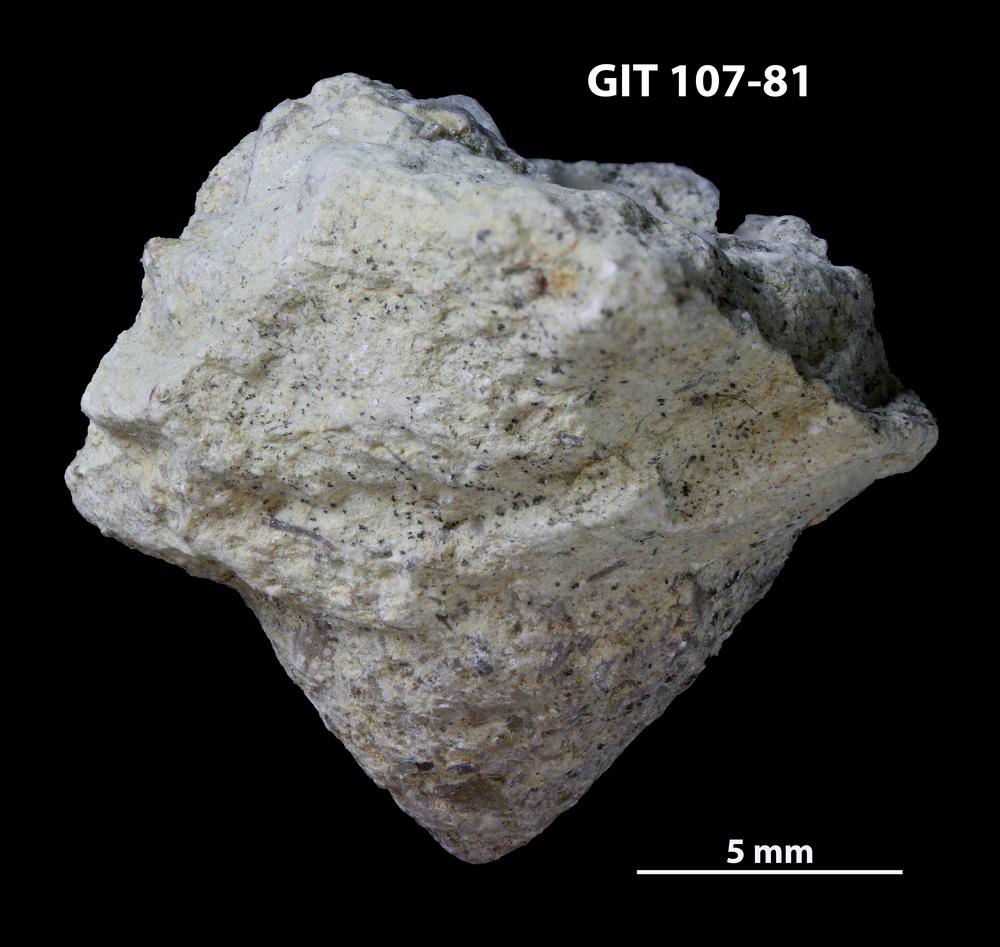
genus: Amphorichnus
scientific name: Amphorichnus
